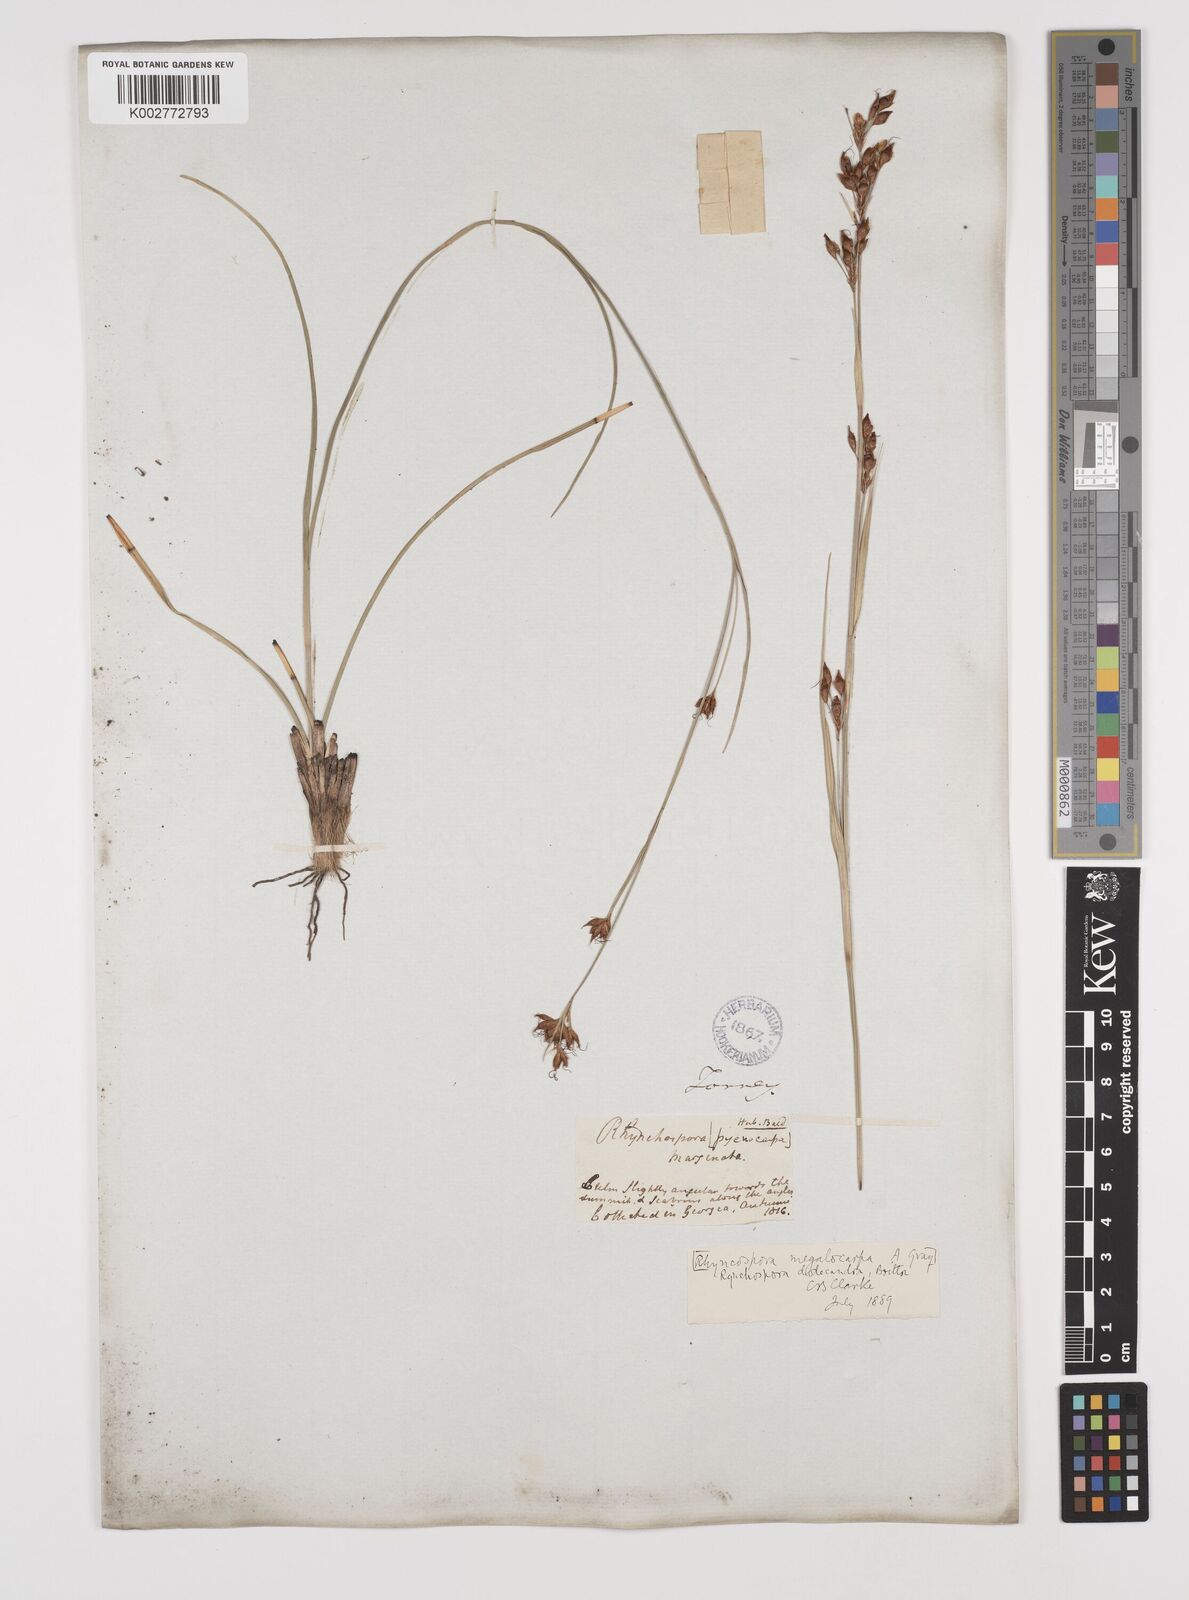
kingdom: Plantae
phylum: Tracheophyta
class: Liliopsida
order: Poales
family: Cyperaceae
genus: Rhynchospora
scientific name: Rhynchospora megalocarpa
